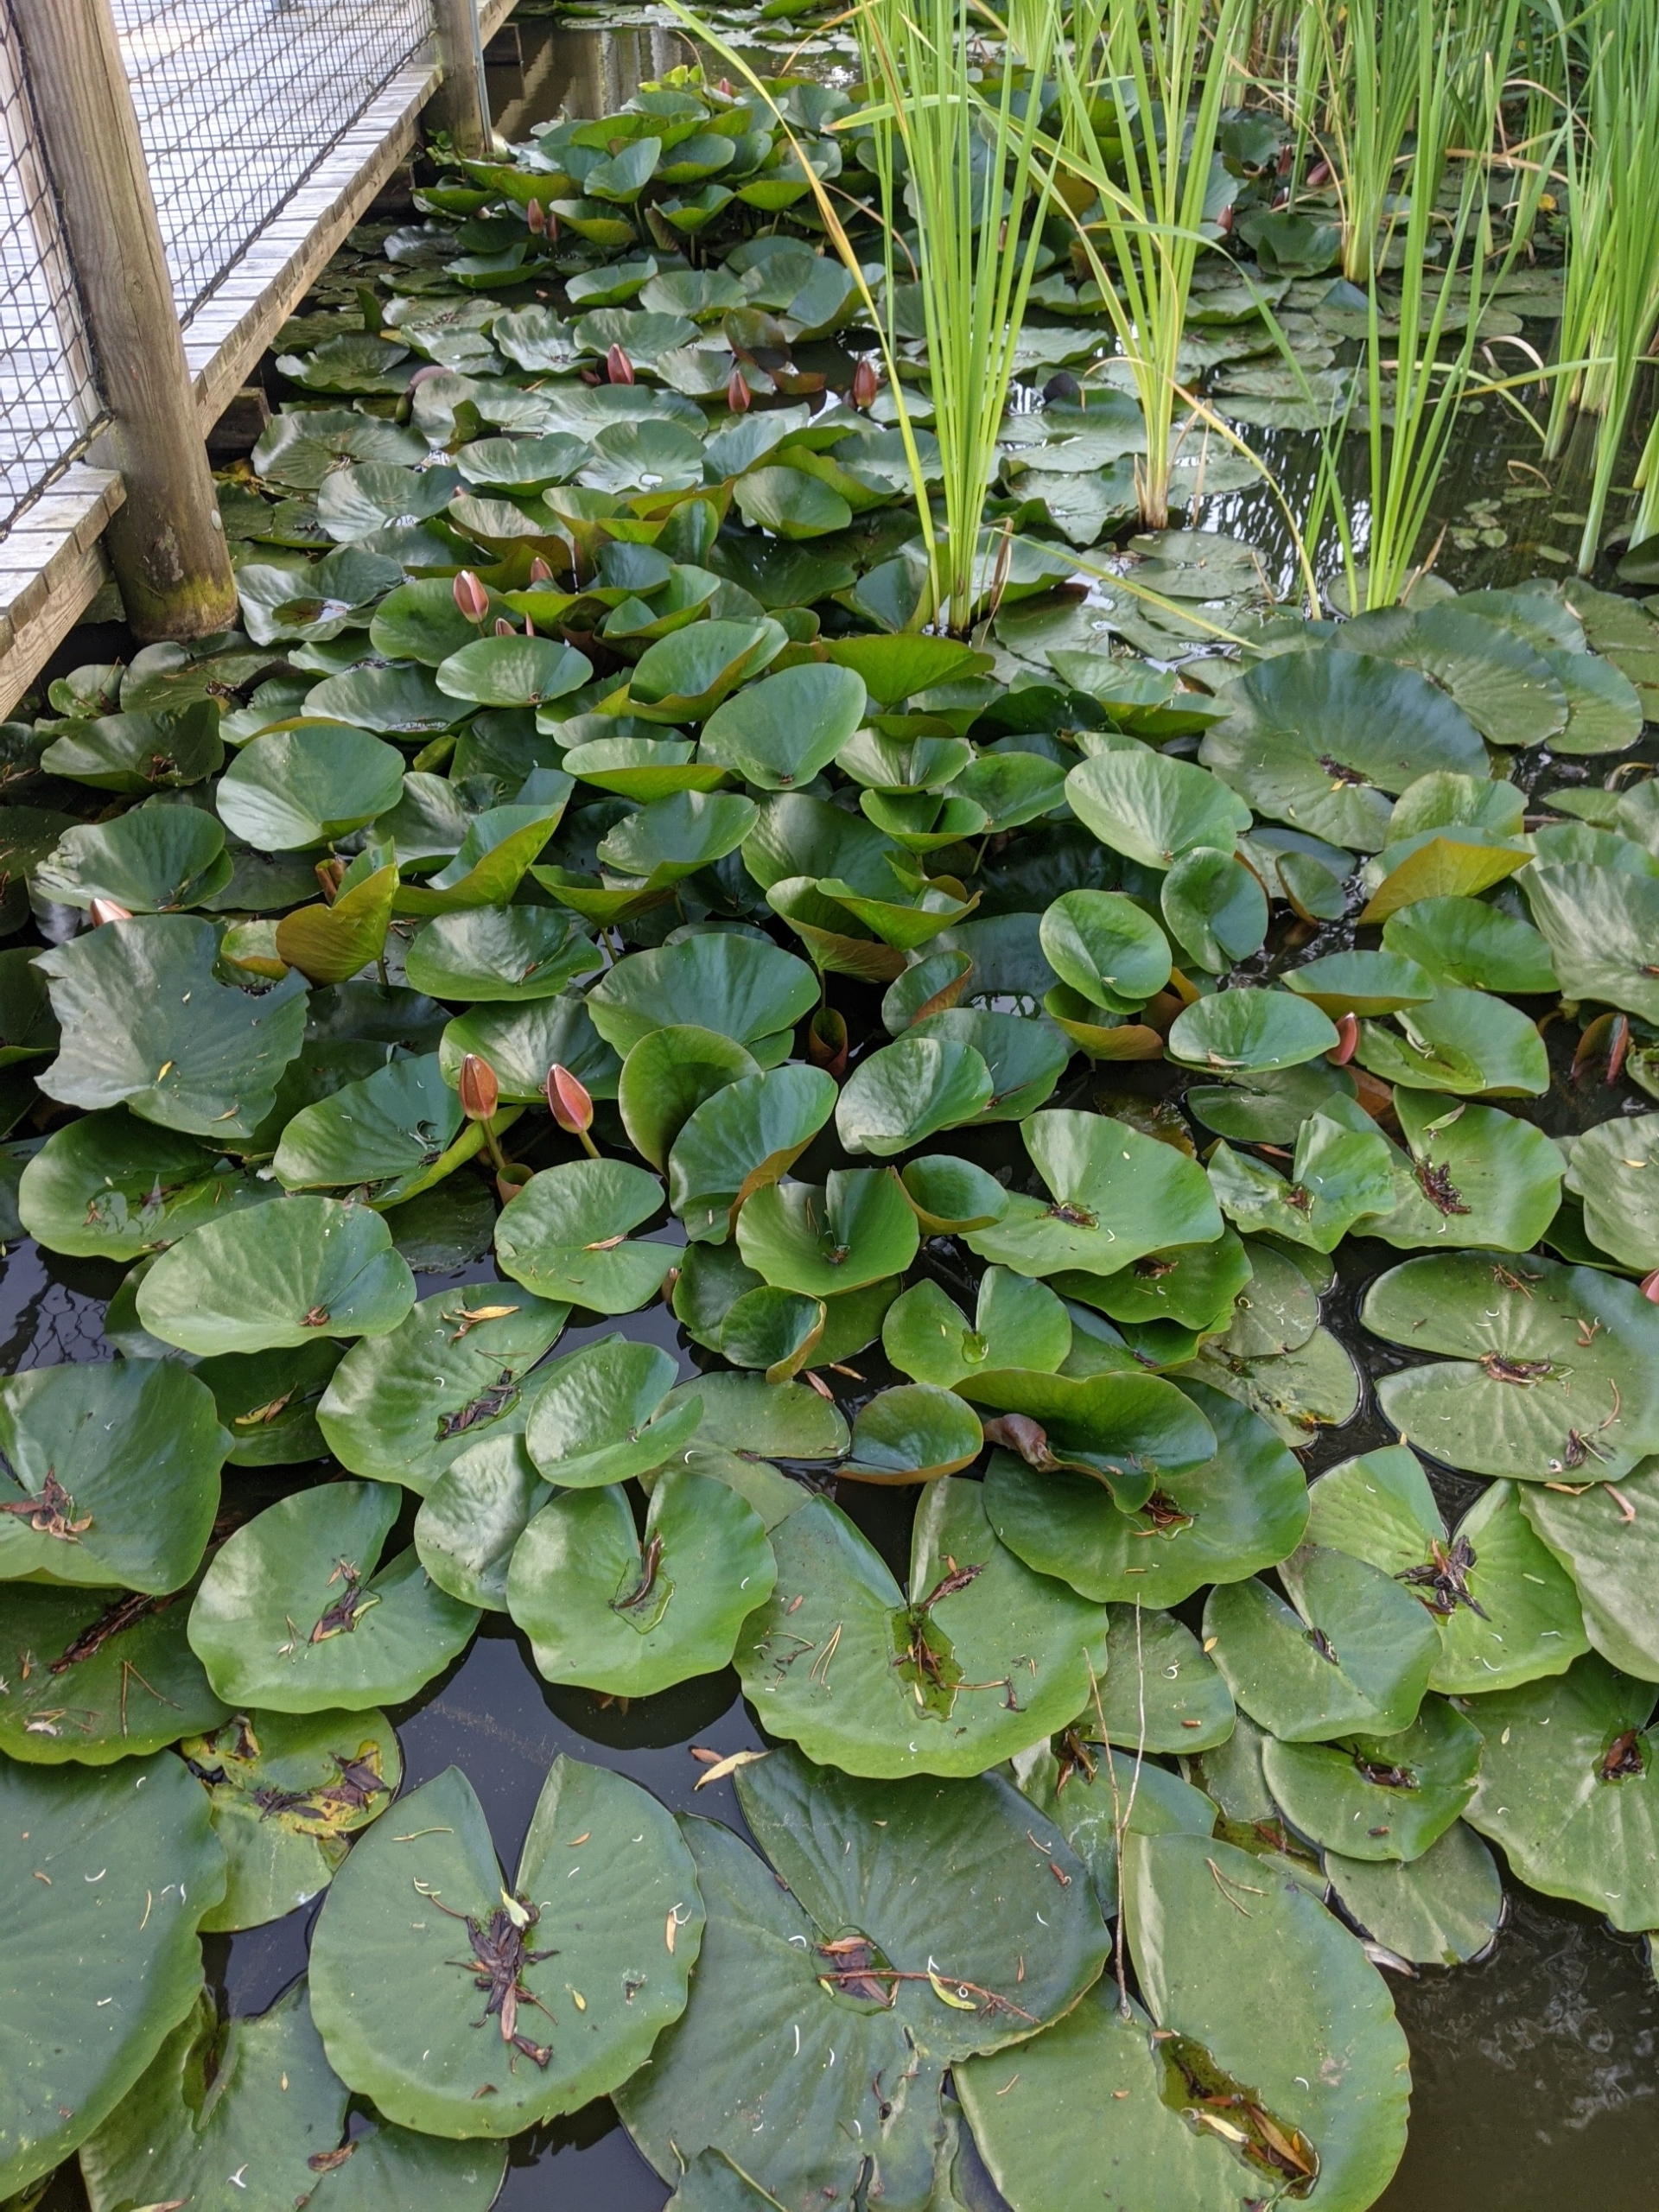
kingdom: Plantae
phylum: Tracheophyta
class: Magnoliopsida
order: Nymphaeales
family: Nymphaeaceae
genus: Nymphaea
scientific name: Nymphaea alba
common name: Hvid åkande
